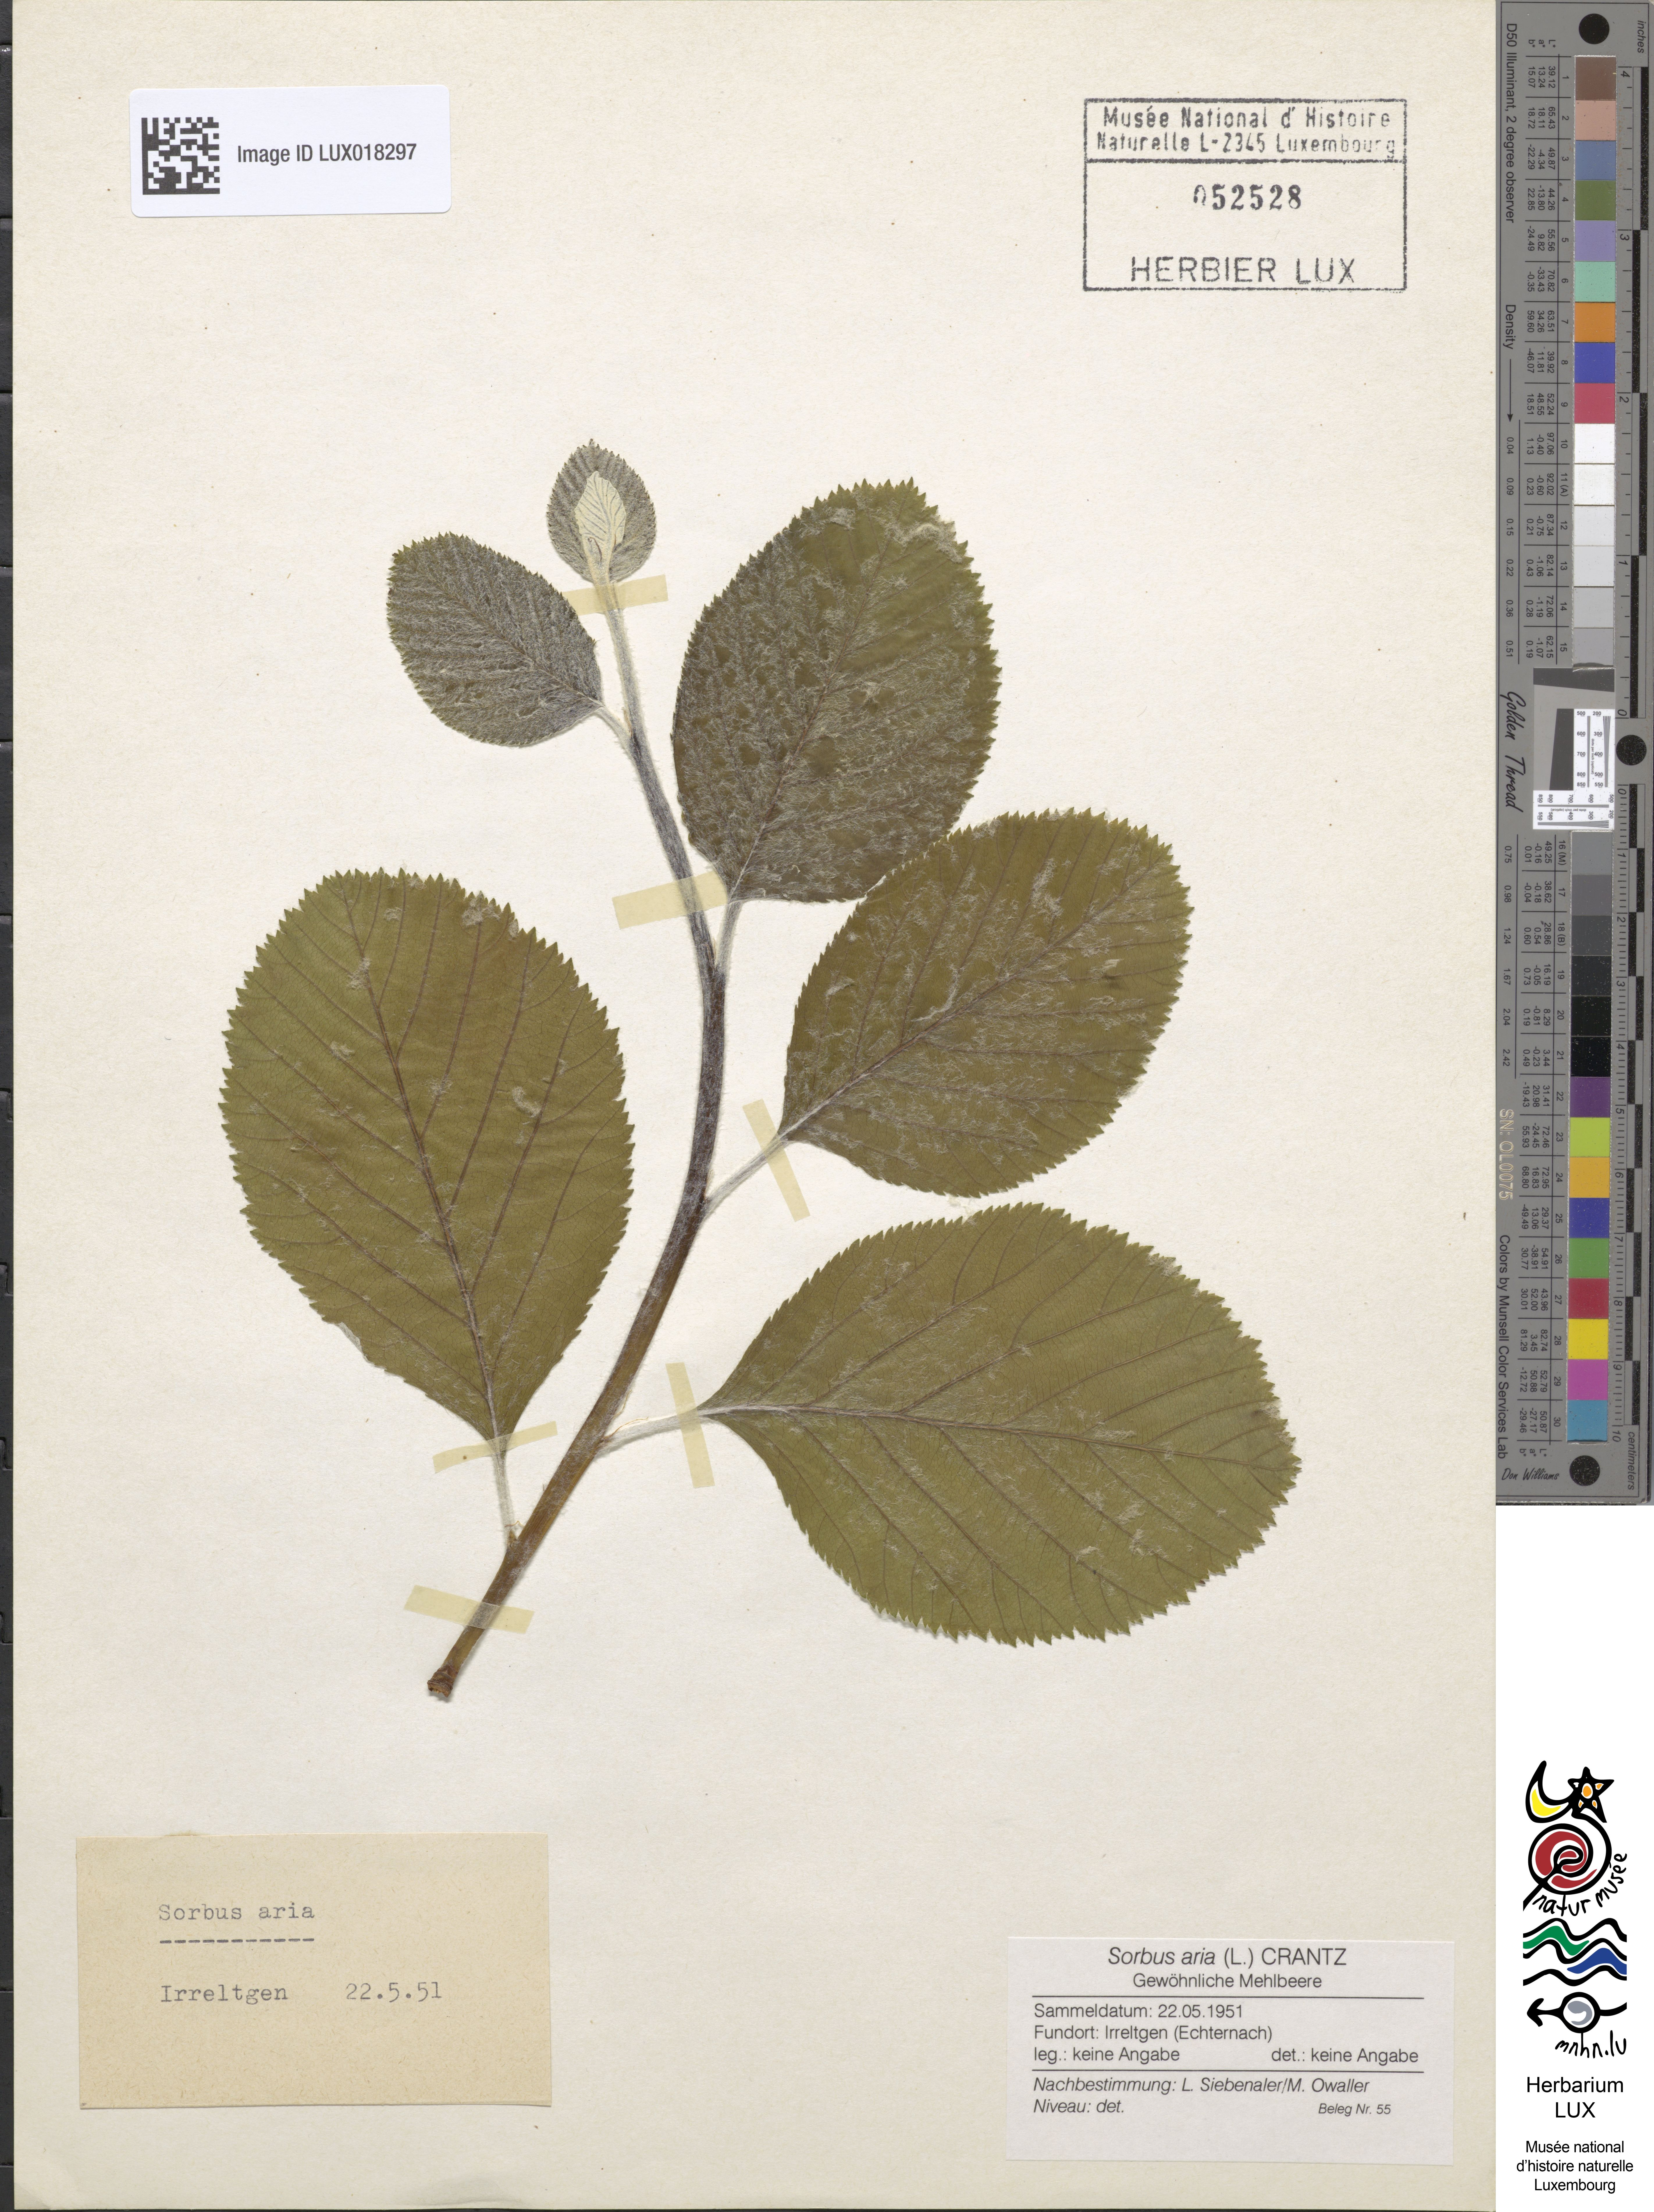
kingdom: Plantae
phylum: Tracheophyta
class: Magnoliopsida
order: Rosales
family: Rosaceae
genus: Aria
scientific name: Aria edulis
